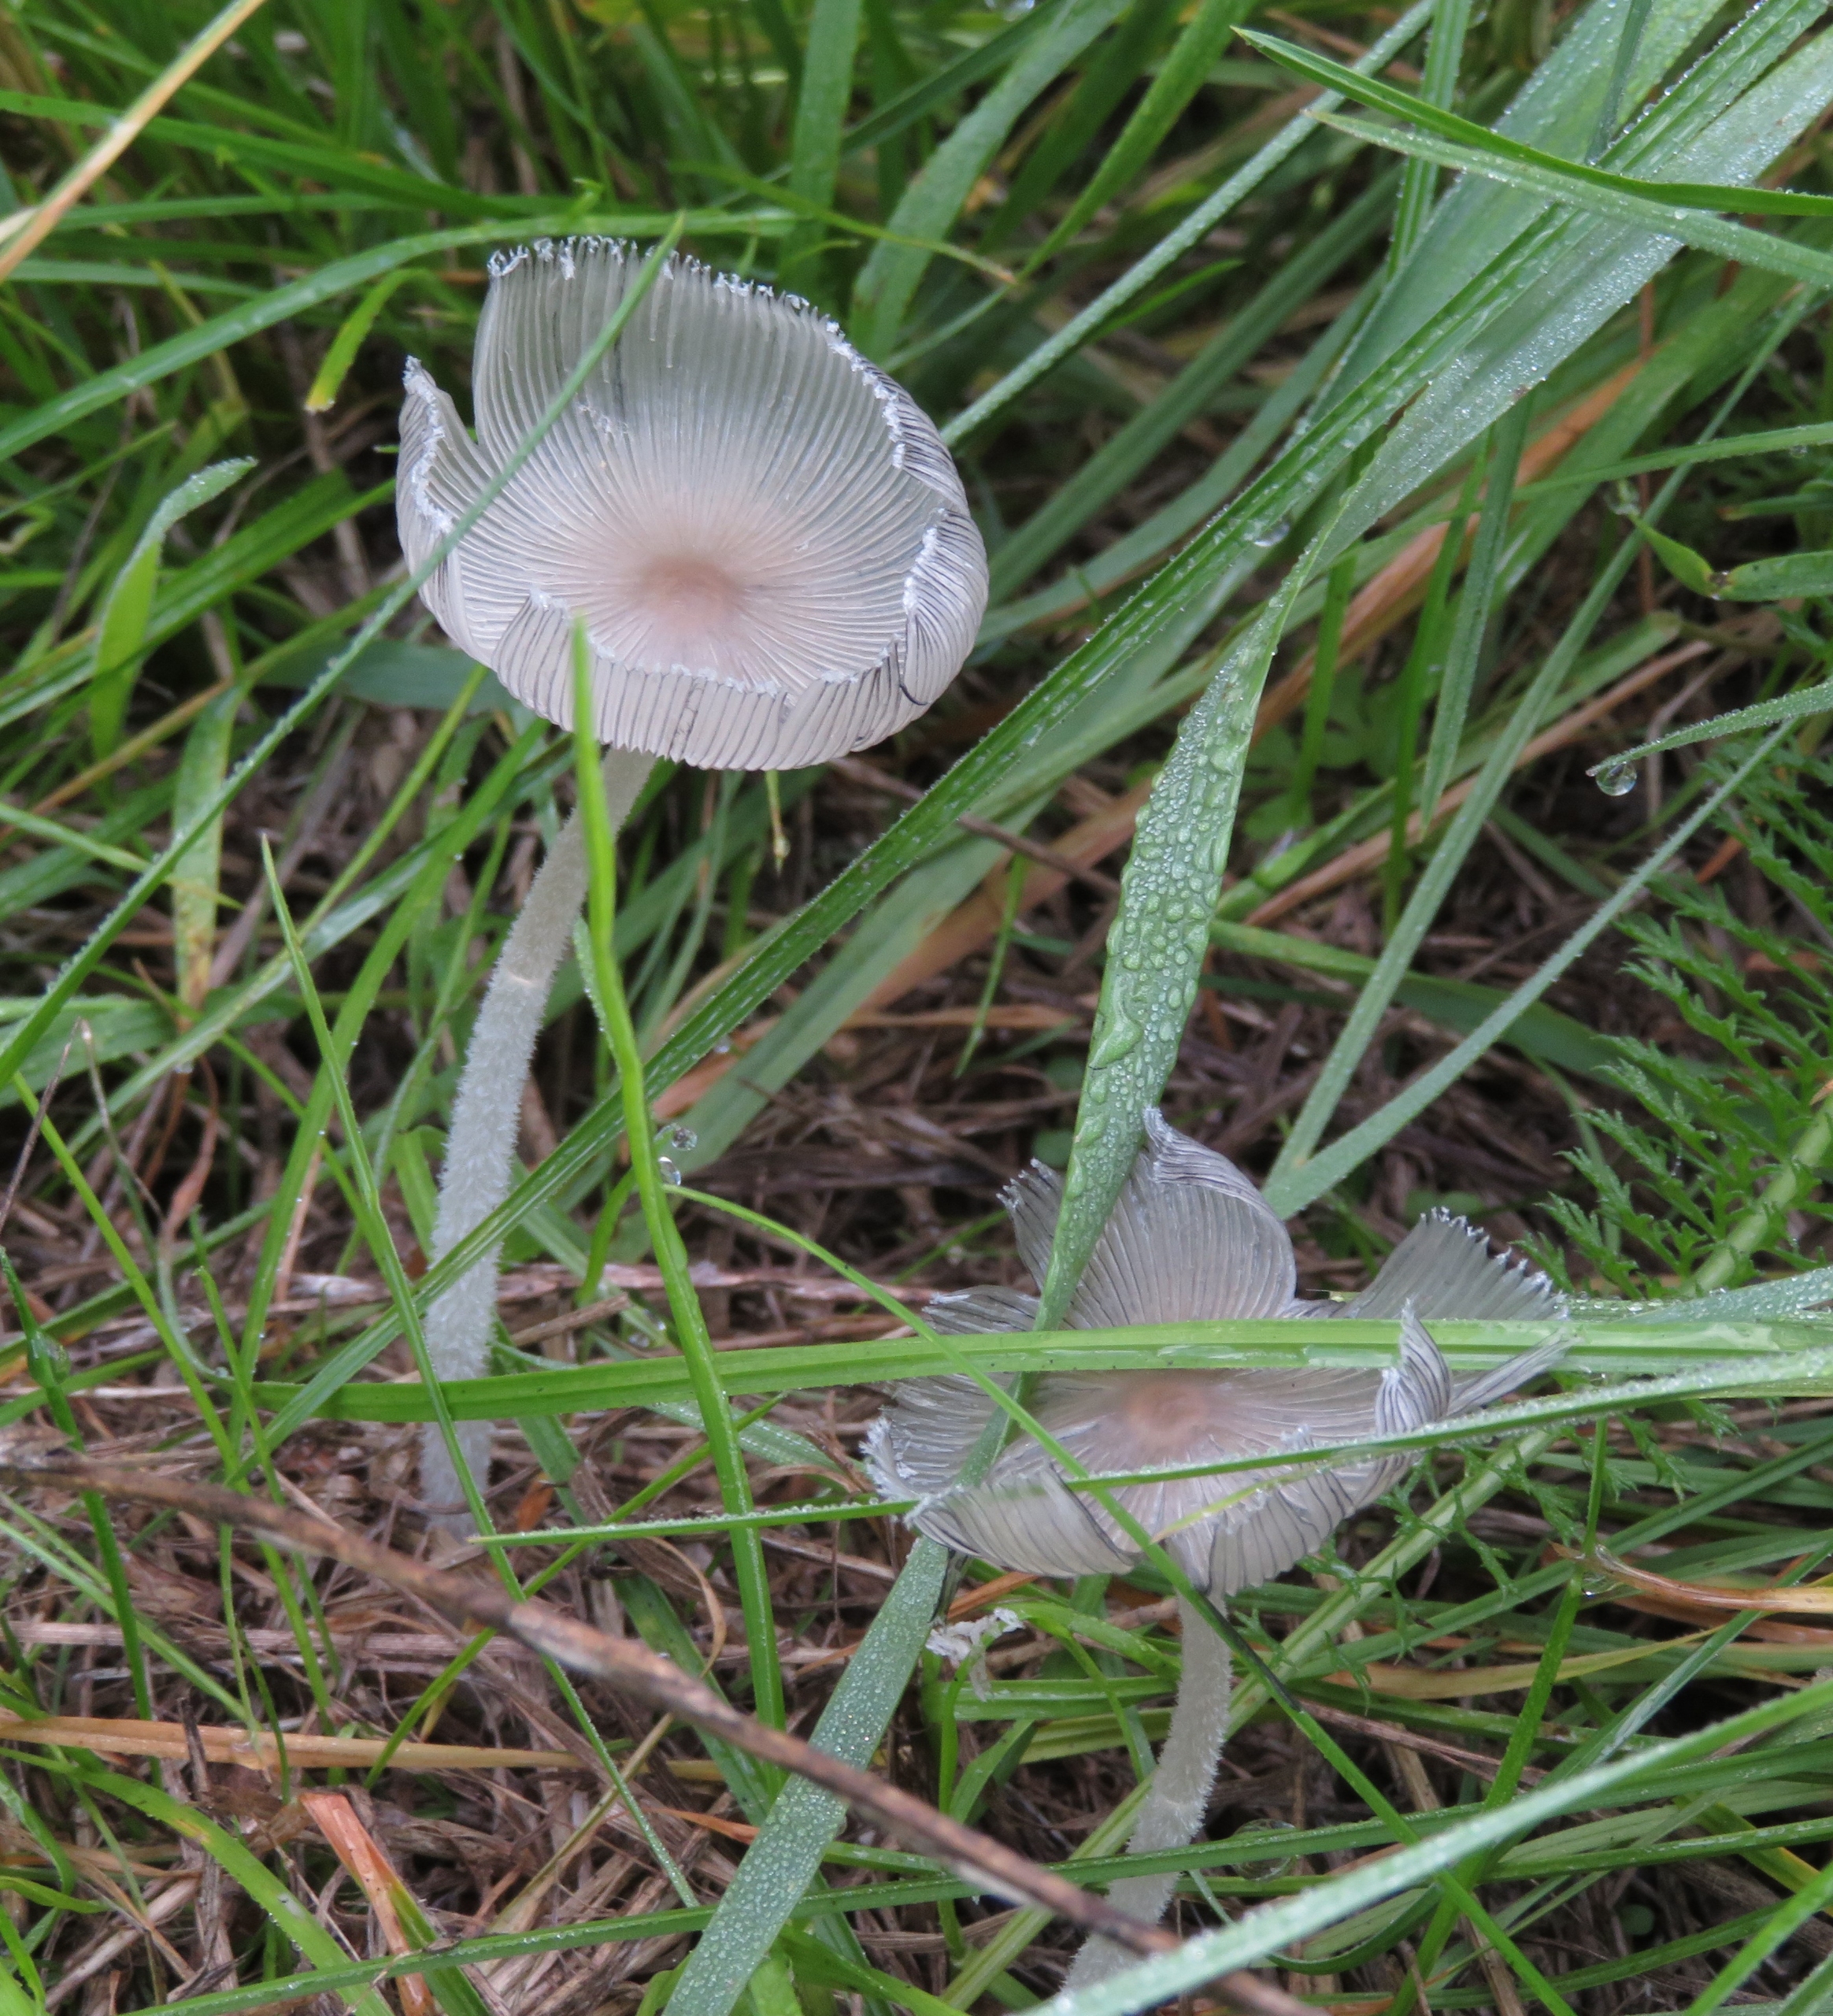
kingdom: Fungi
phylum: Basidiomycota
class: Agaricomycetes
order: Agaricales
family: Psathyrellaceae
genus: Coprinopsis
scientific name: Coprinopsis lagopus
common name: Dunstokket blækhat
